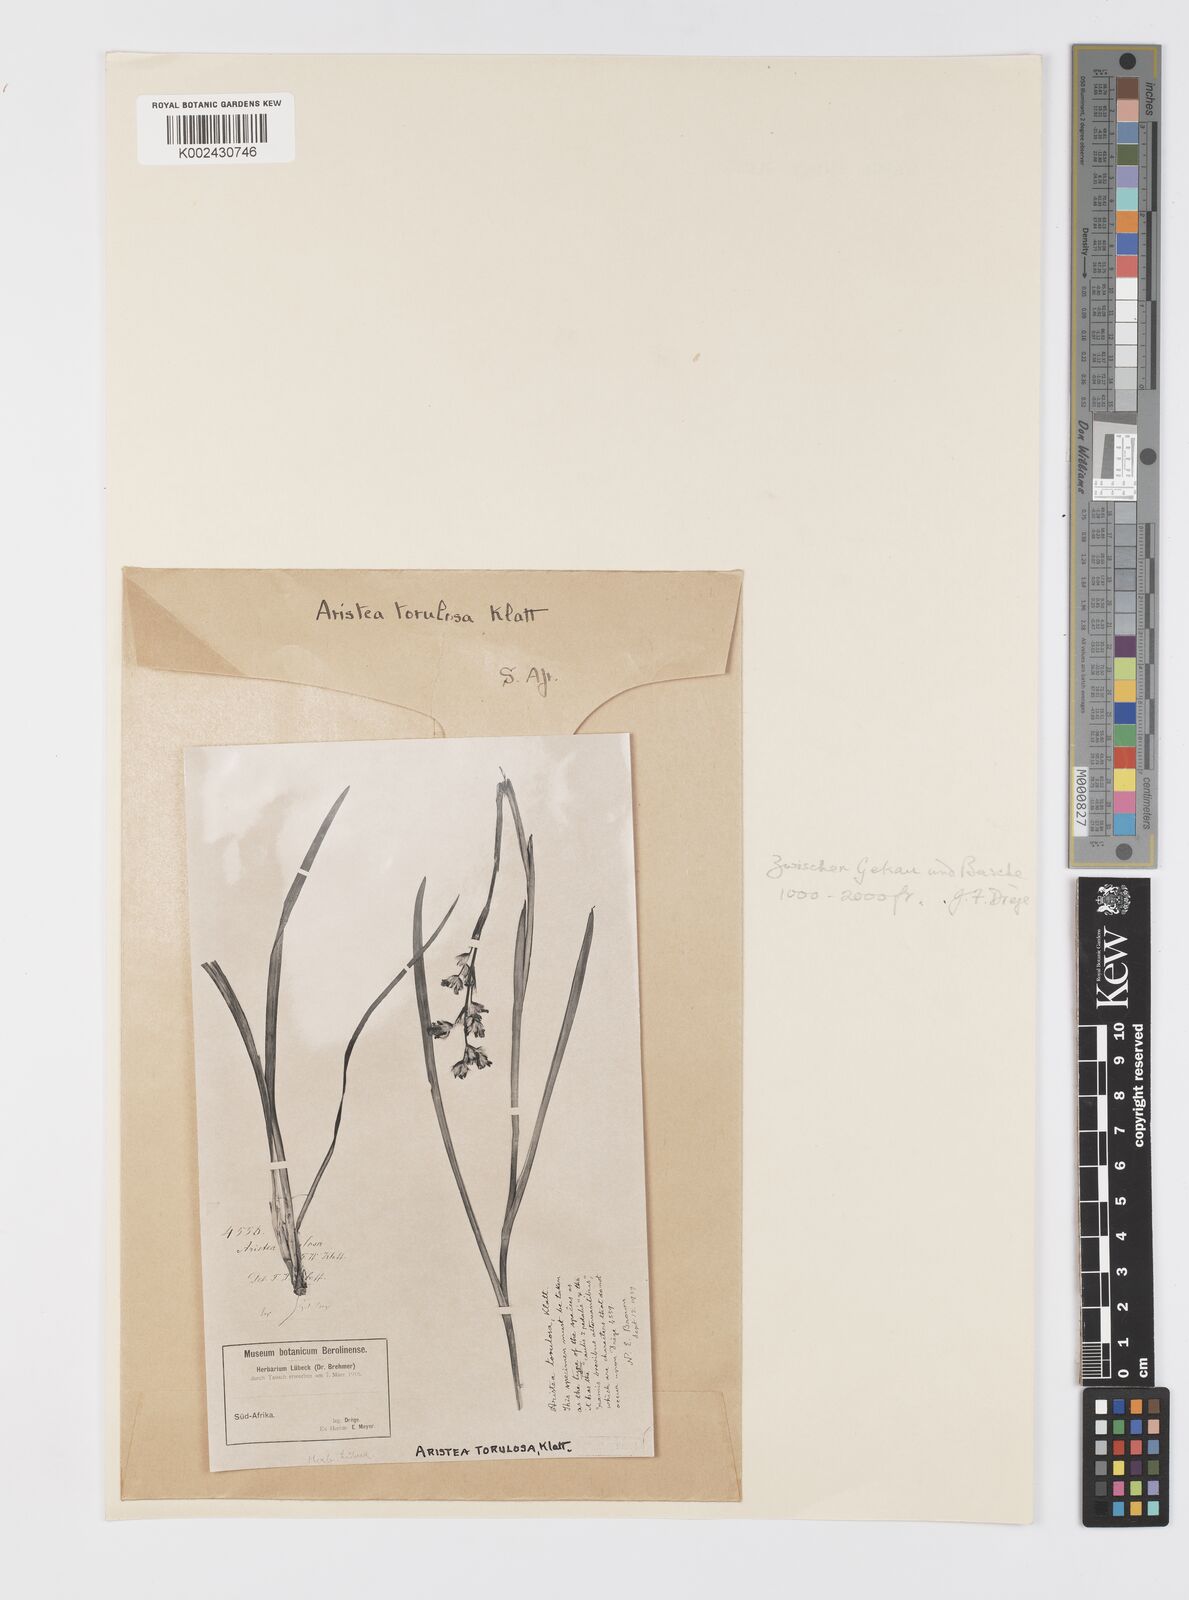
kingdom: Plantae
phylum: Tracheophyta
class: Liliopsida
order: Asparagales
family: Iridaceae
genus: Aristea
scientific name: Aristea torulosa
